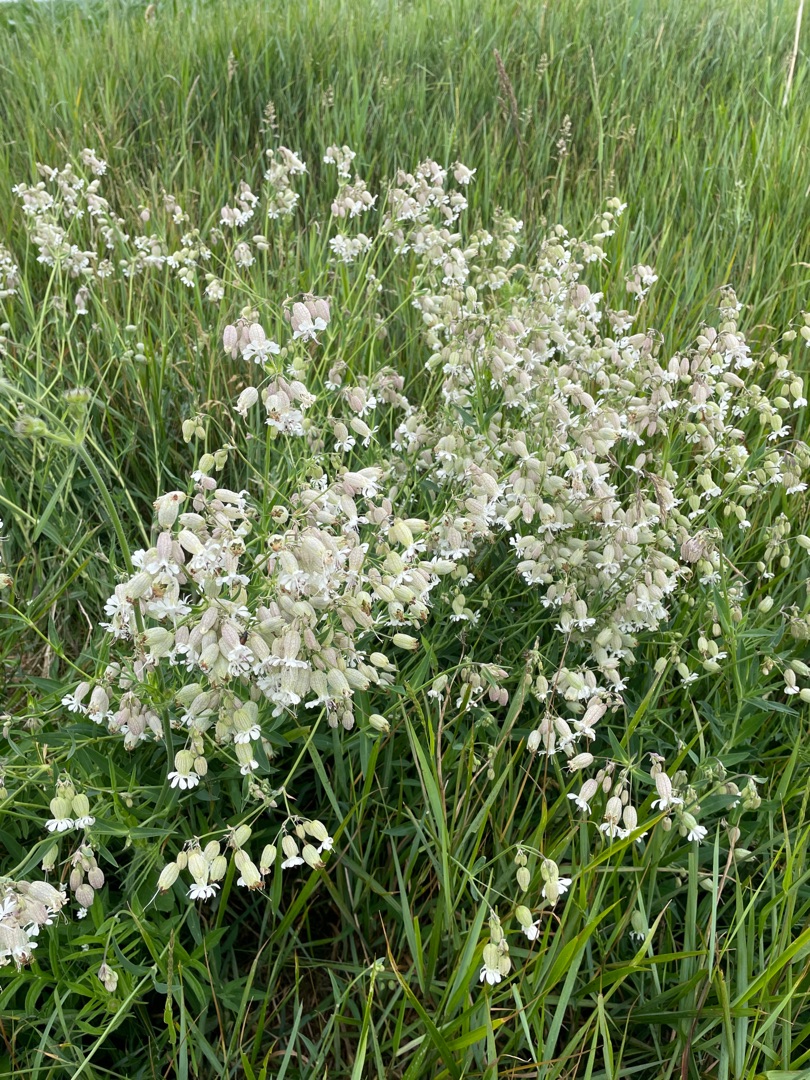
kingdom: Plantae
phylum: Tracheophyta
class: Magnoliopsida
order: Caryophyllales
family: Caryophyllaceae
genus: Silene
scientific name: Silene vulgaris
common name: Blæresmælde
